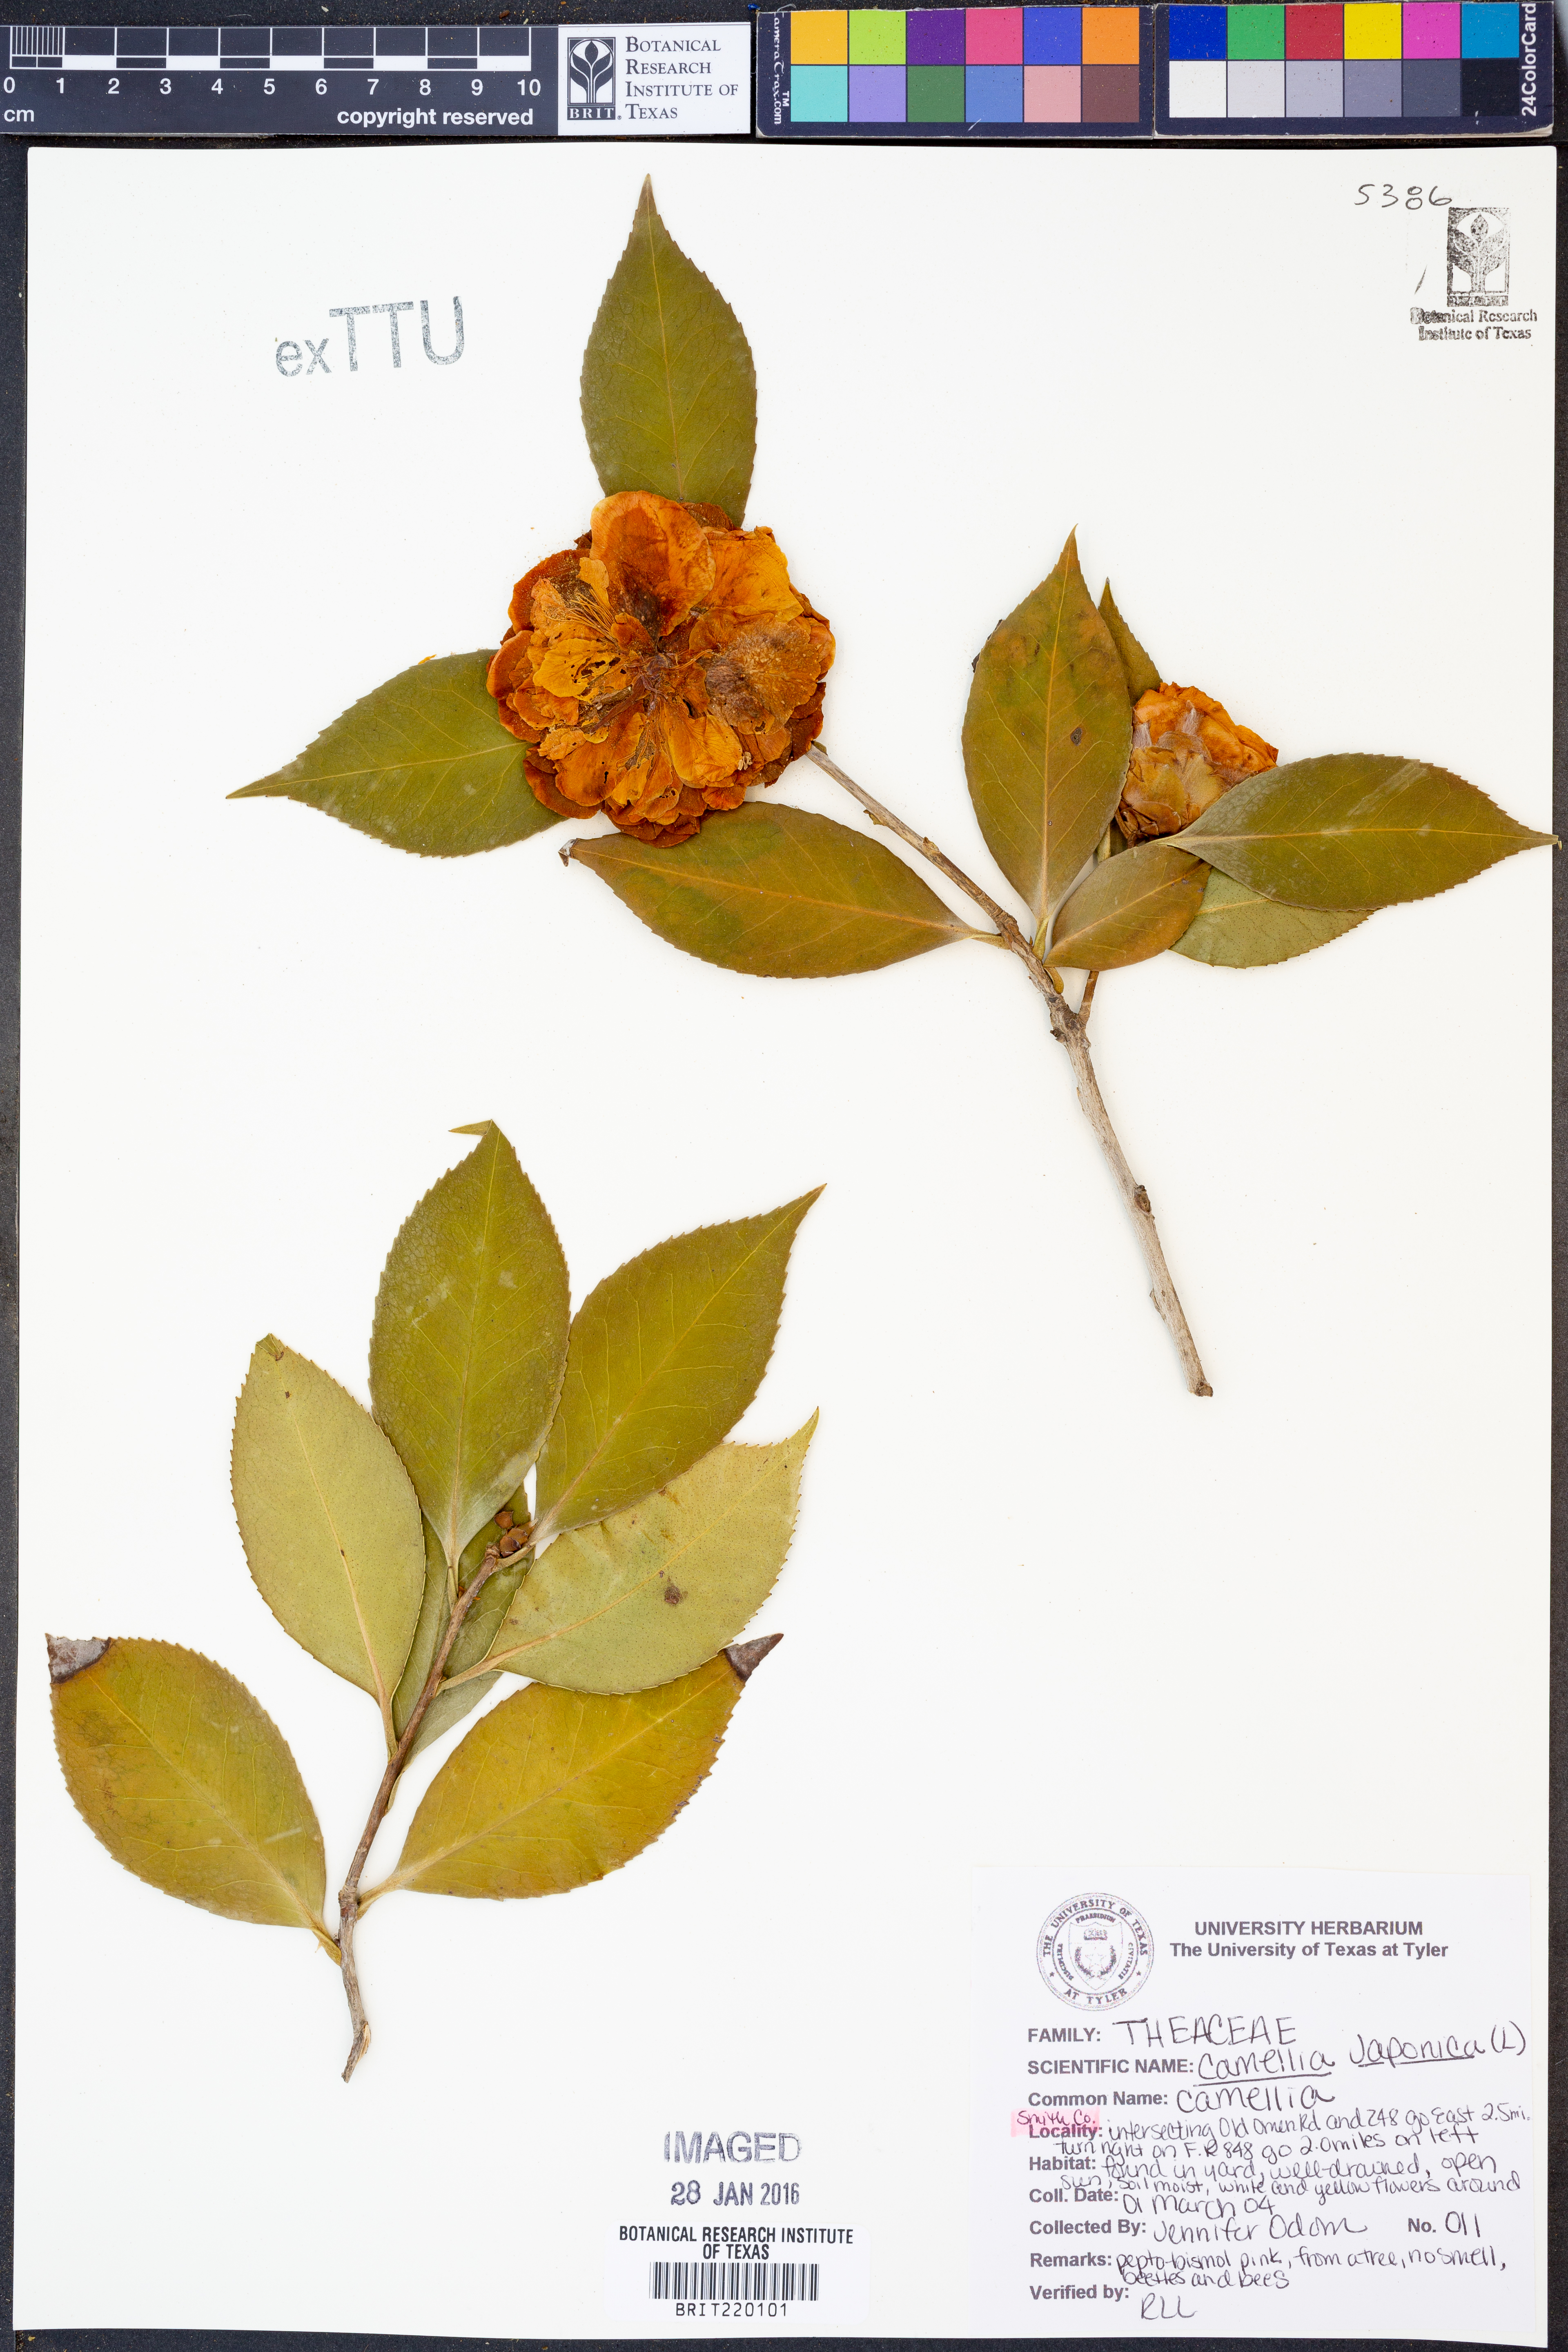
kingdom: Plantae
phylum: Tracheophyta
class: Magnoliopsida
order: Ericales
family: Theaceae
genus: Camellia
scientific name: Camellia japonica
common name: Camellia
